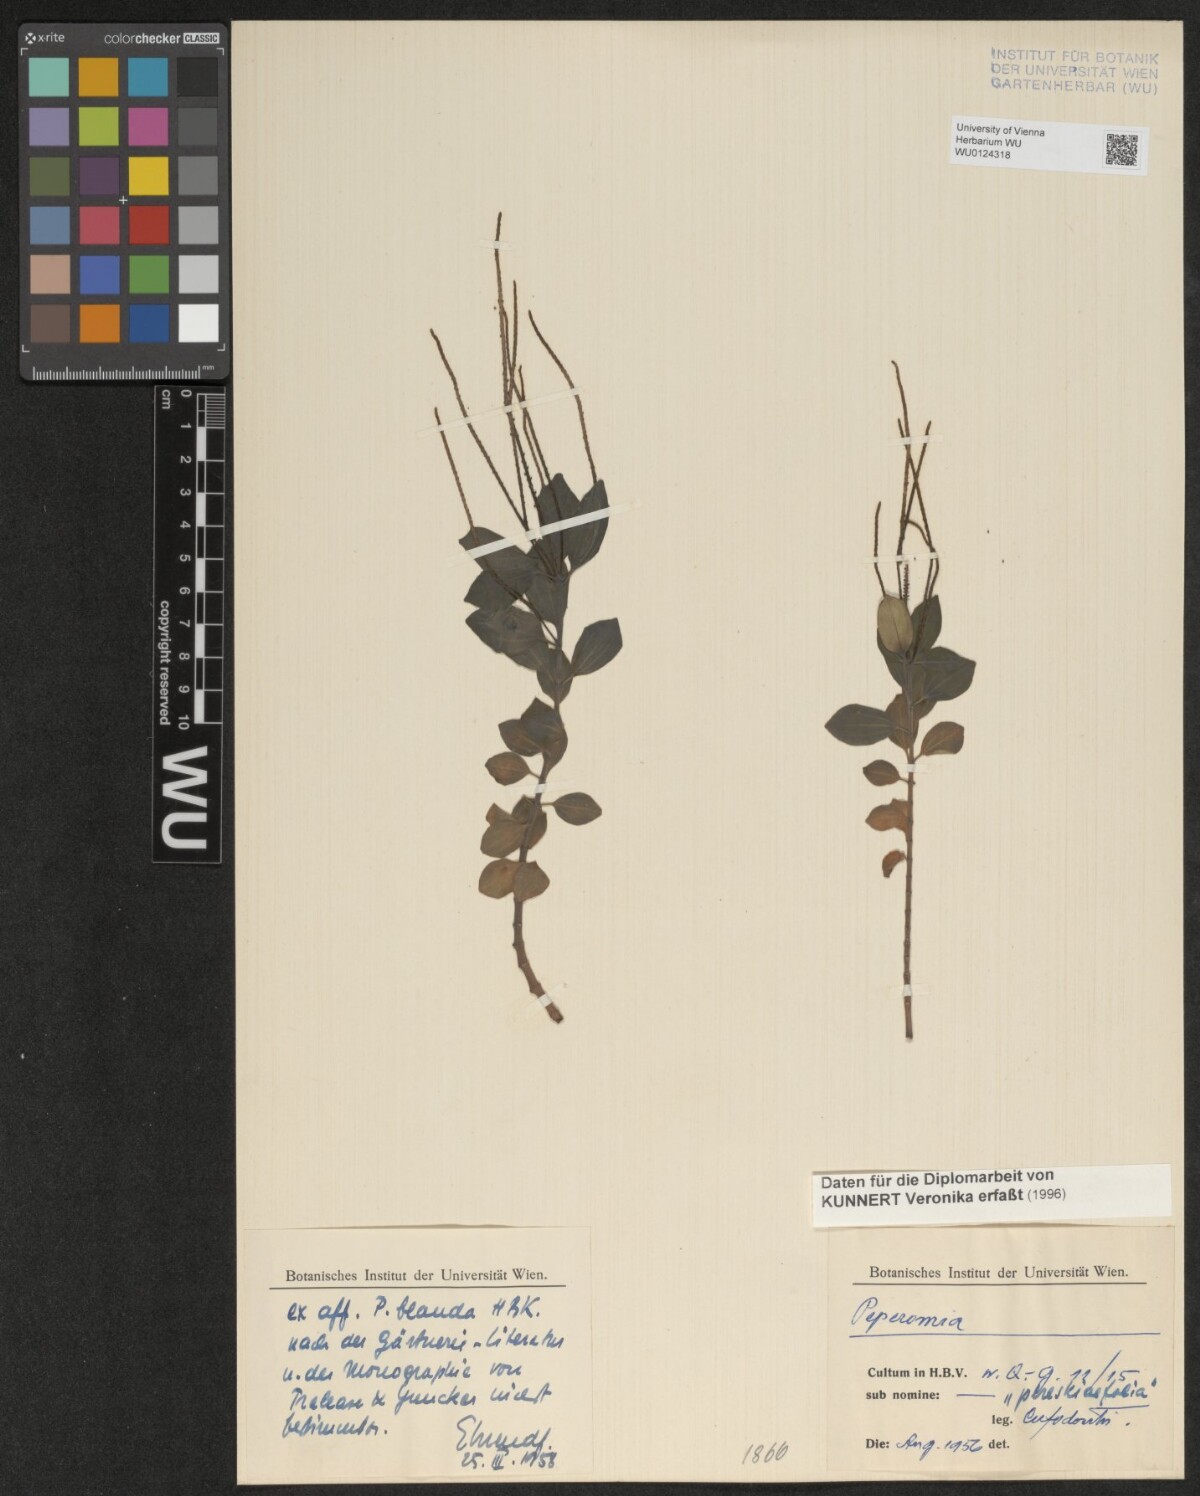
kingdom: Plantae
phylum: Tracheophyta
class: Magnoliopsida
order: Piperales
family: Piperaceae
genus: Peperomia
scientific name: Peperomia blanda
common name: Arid-land peperomia
